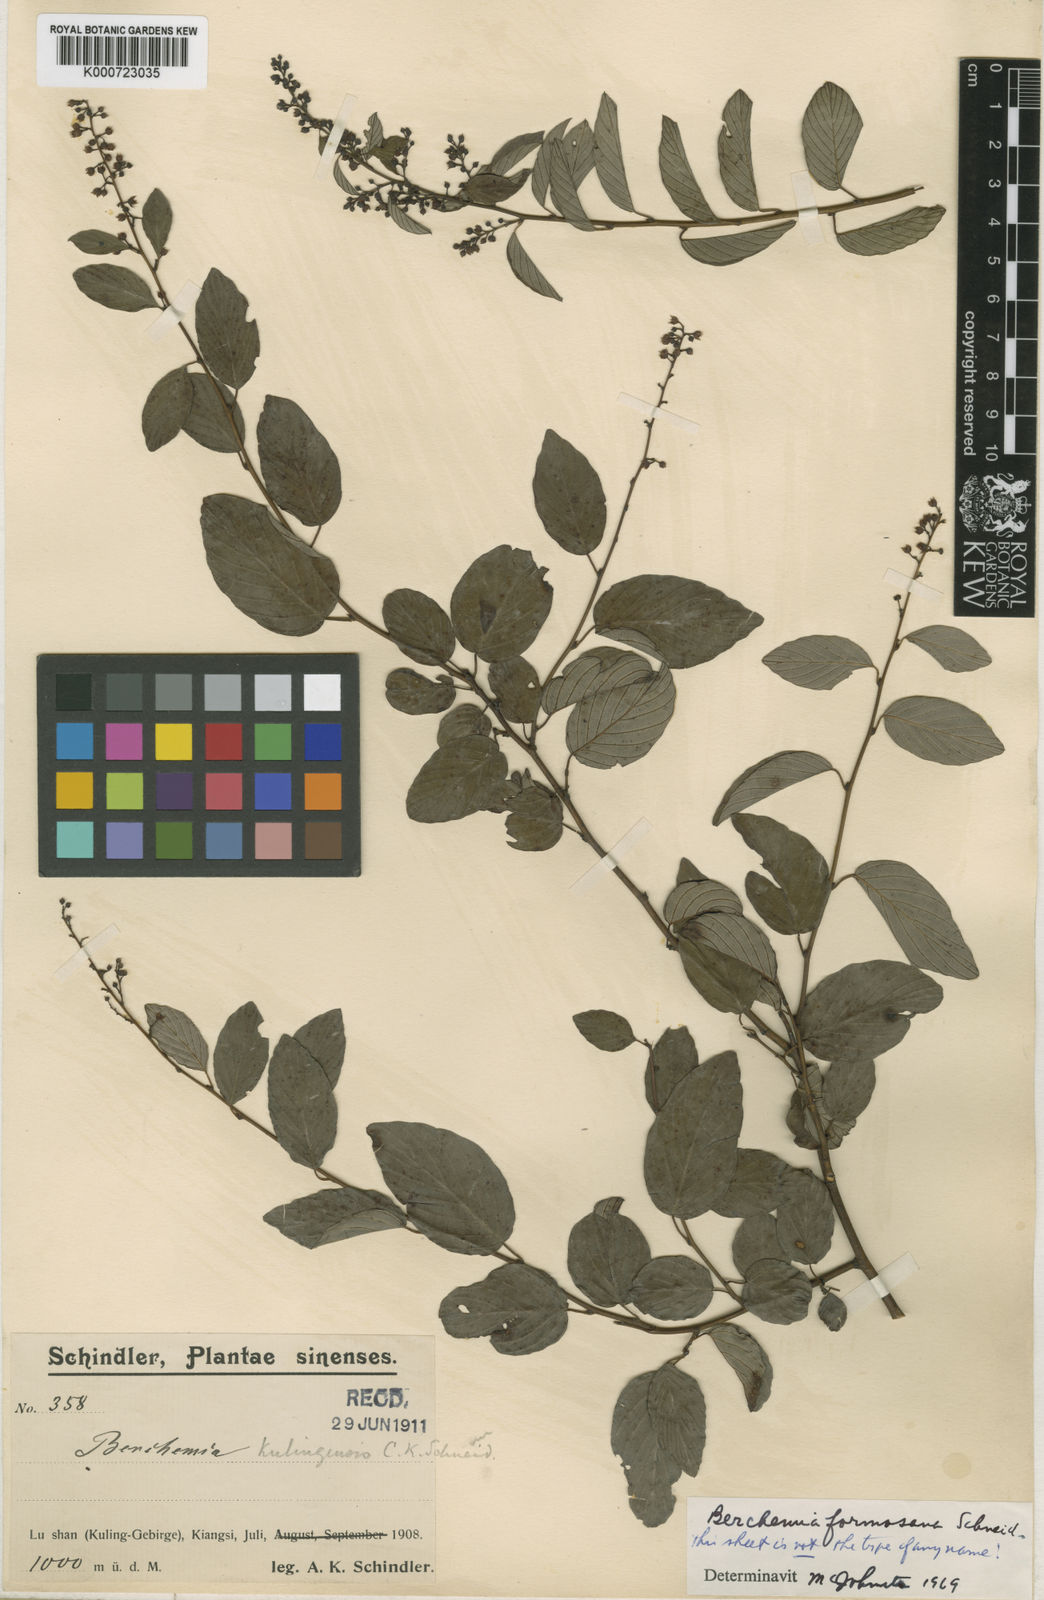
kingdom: Plantae
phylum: Tracheophyta
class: Magnoliopsida
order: Rosales
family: Rhamnaceae
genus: Berchemia
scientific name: Berchemia formosana
